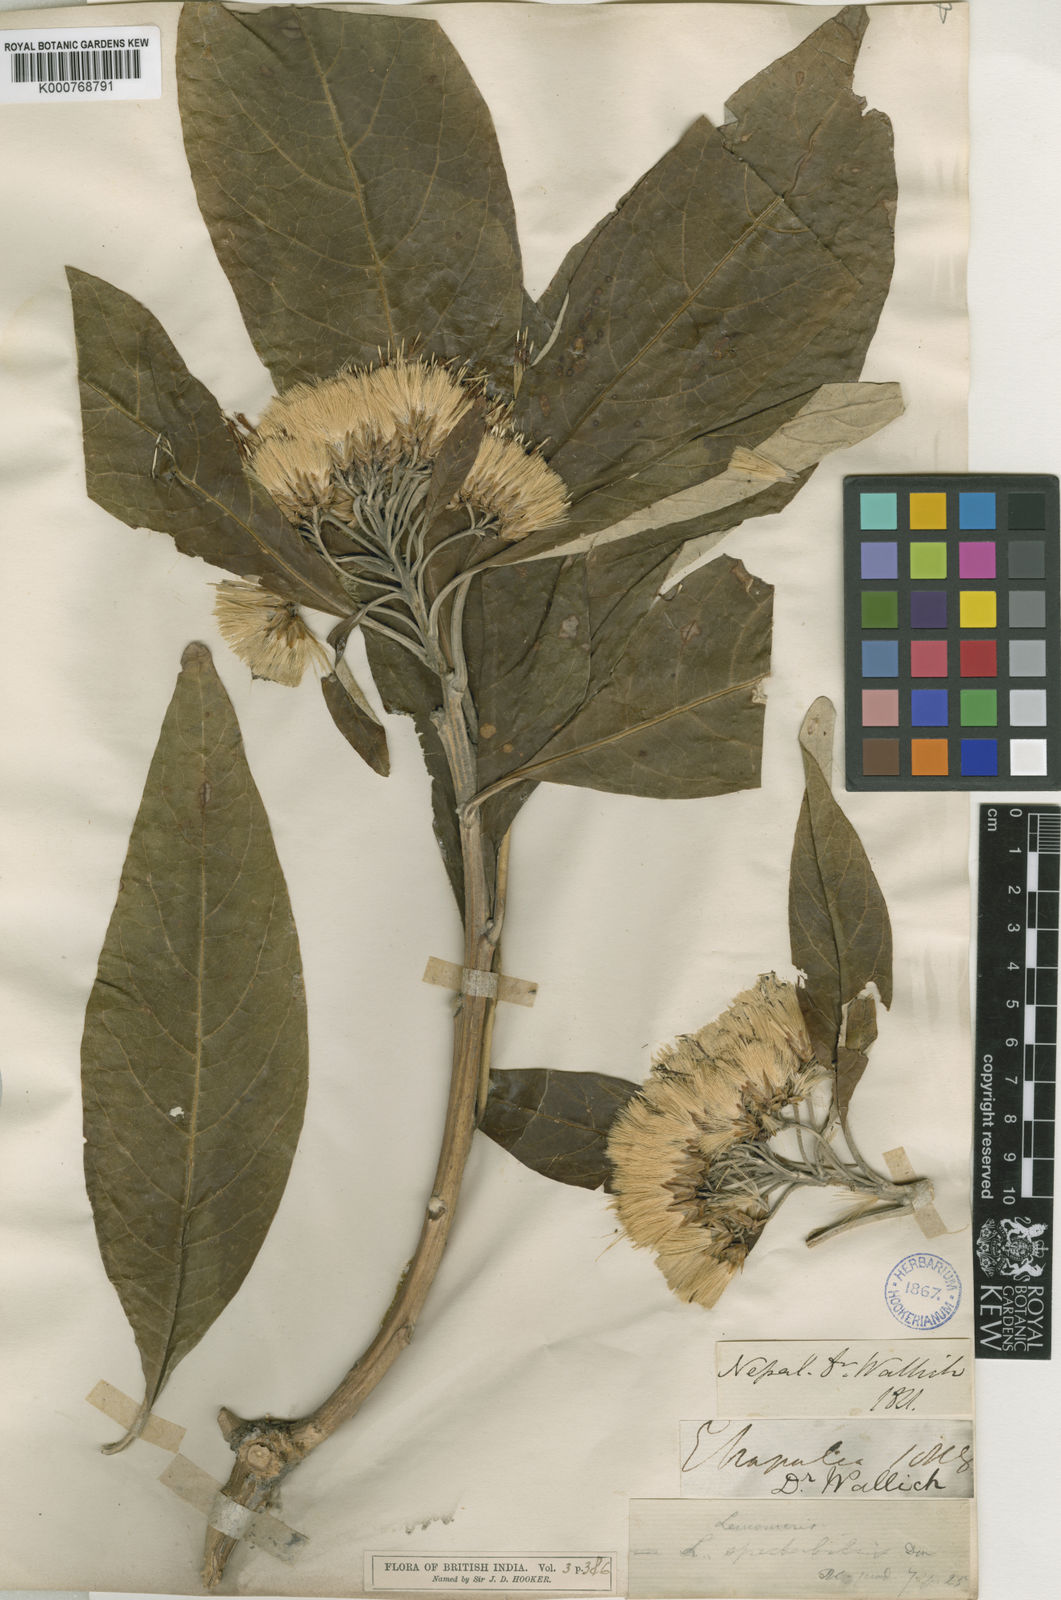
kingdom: Plantae
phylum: Tracheophyta
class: Magnoliopsida
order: Asterales
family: Asteraceae
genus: Leucomeris
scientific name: Leucomeris spectabilis
